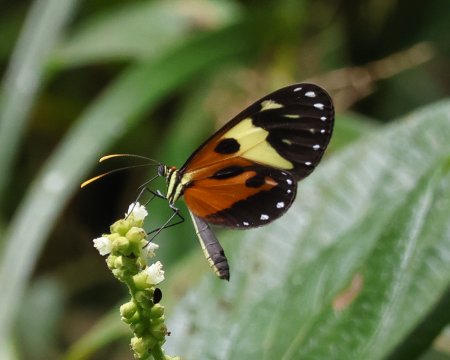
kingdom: Animalia
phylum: Arthropoda
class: Insecta
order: Lepidoptera
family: Nymphalidae
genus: Ithomia
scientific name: Ithomia iphianassa
